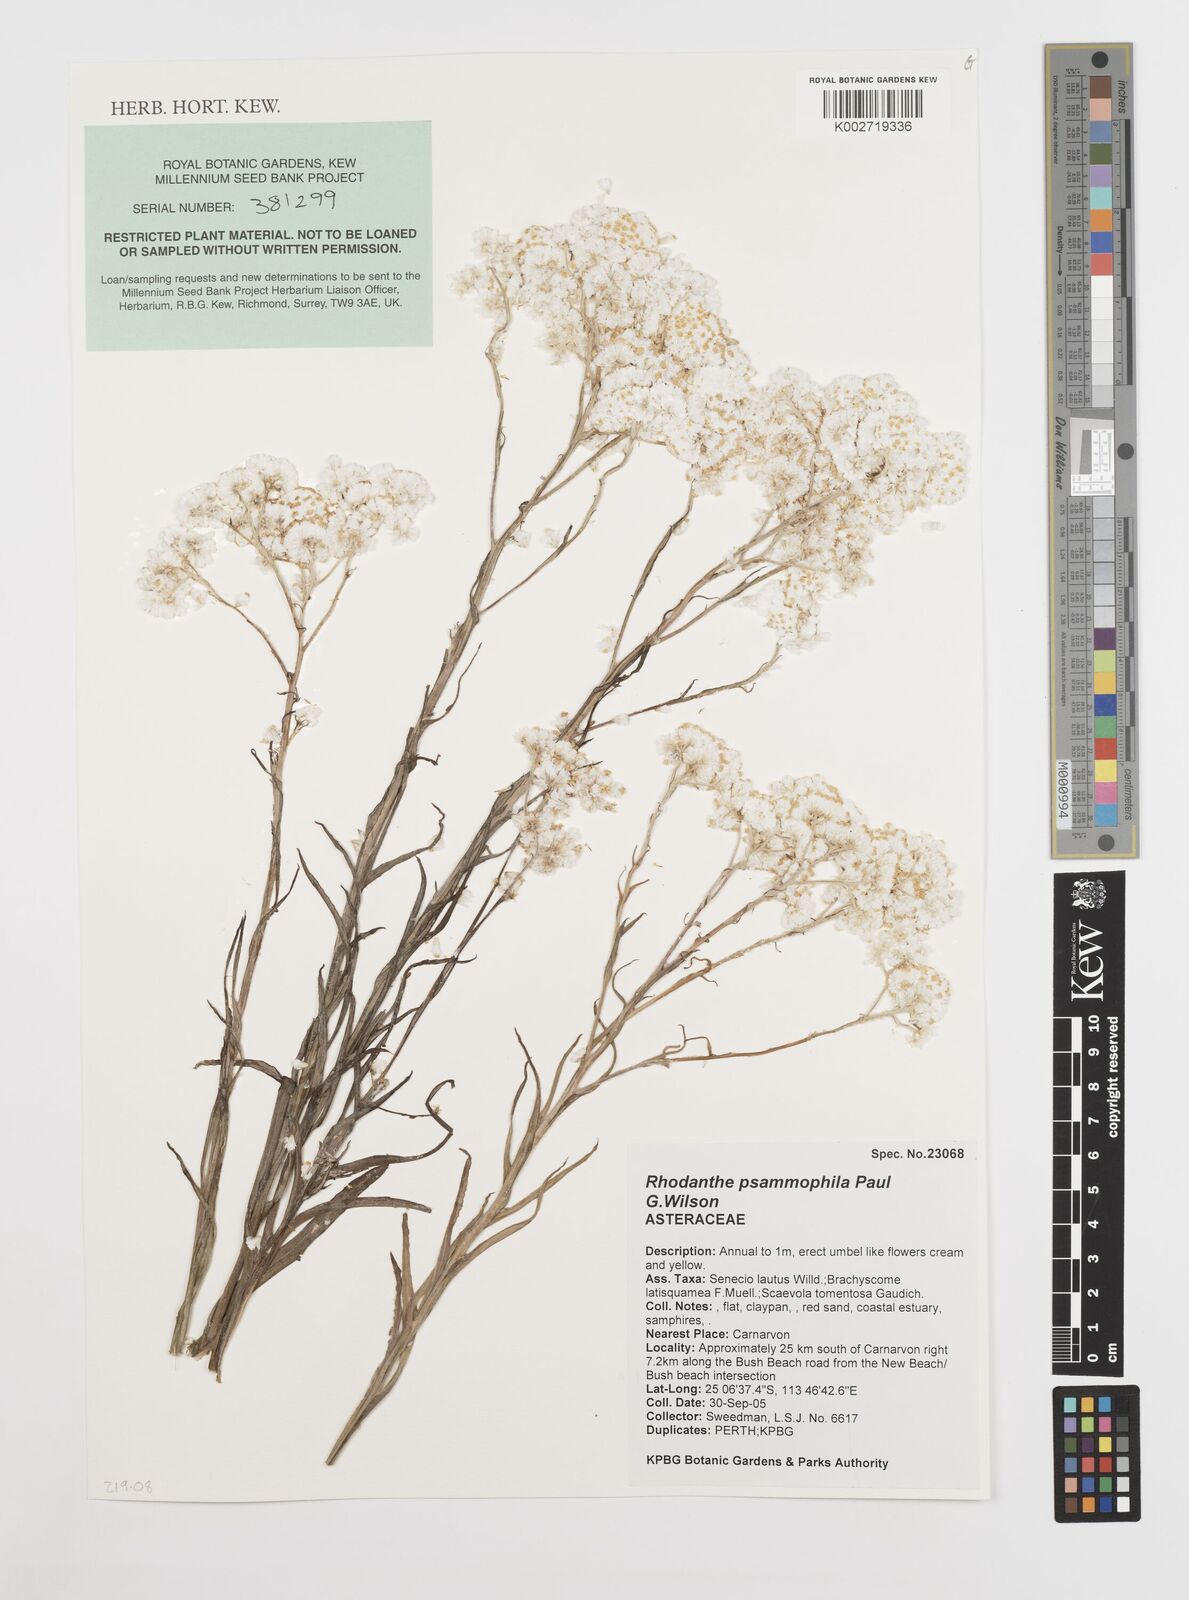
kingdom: Plantae
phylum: Tracheophyta
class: Magnoliopsida
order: Asterales
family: Asteraceae
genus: Rhodanthe
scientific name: Rhodanthe psammophila
